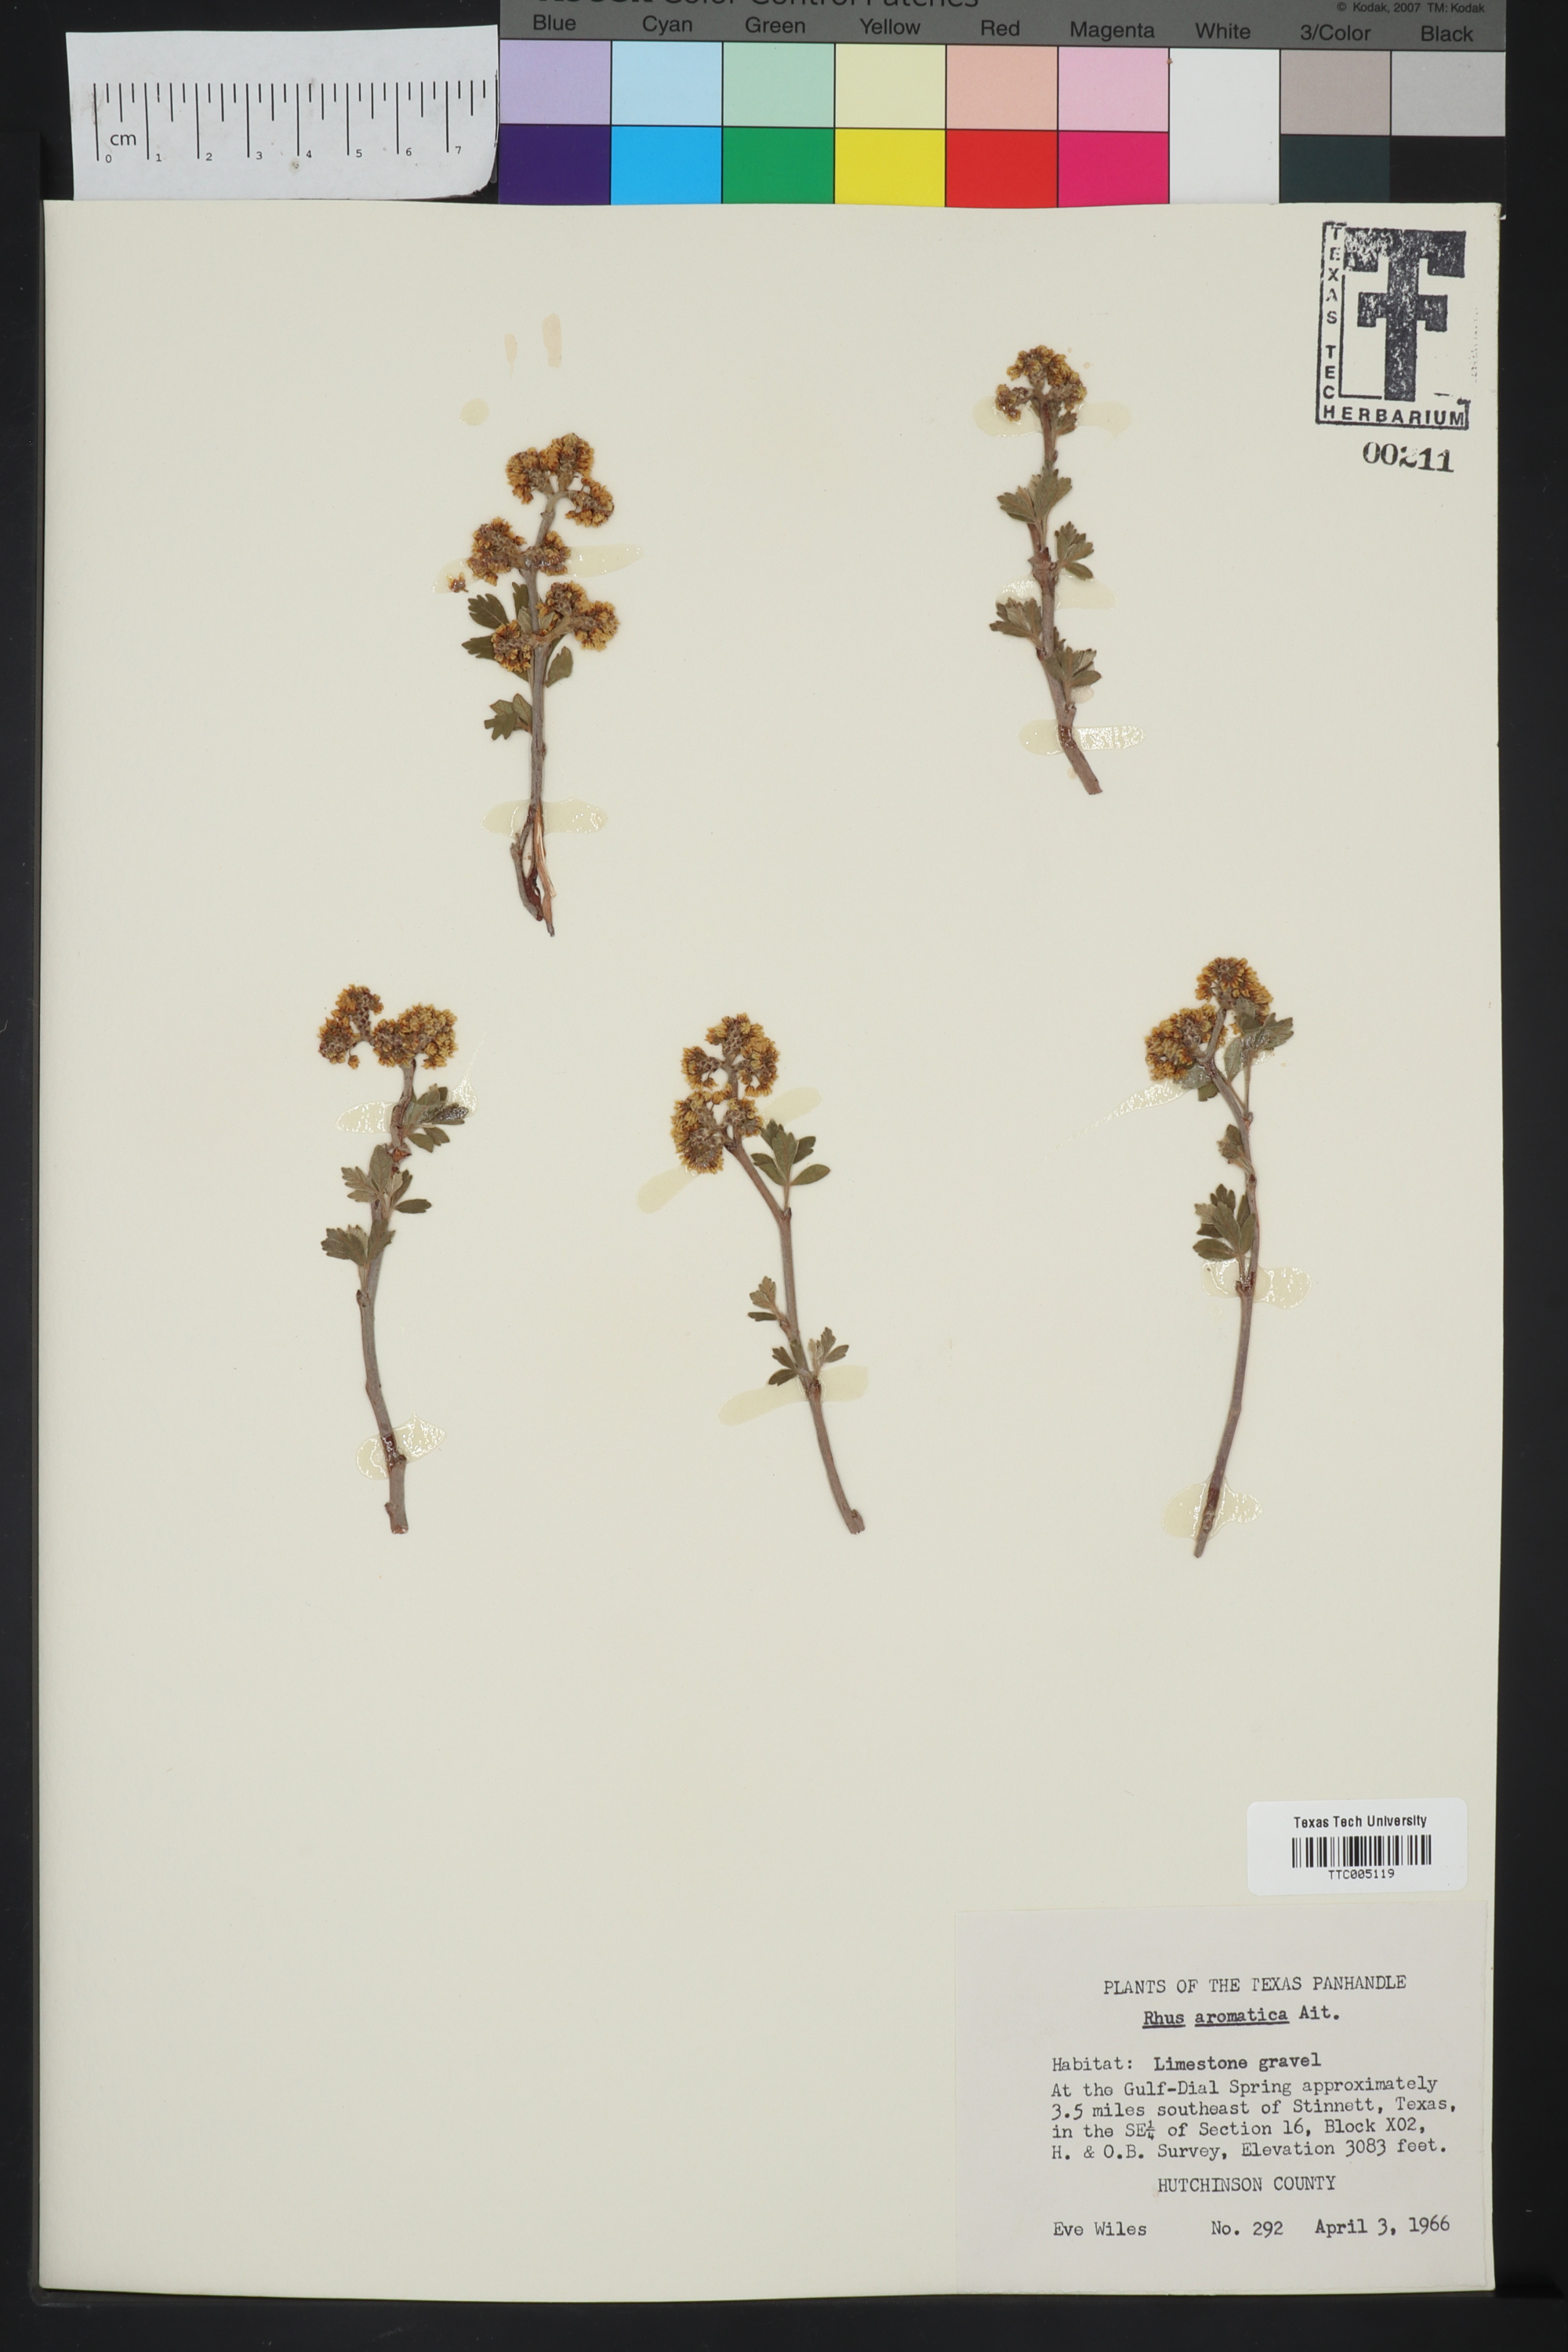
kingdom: Plantae
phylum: Tracheophyta
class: Magnoliopsida
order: Sapindales
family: Anacardiaceae
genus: Rhus
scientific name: Rhus aromatica
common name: Aromatic sumac
